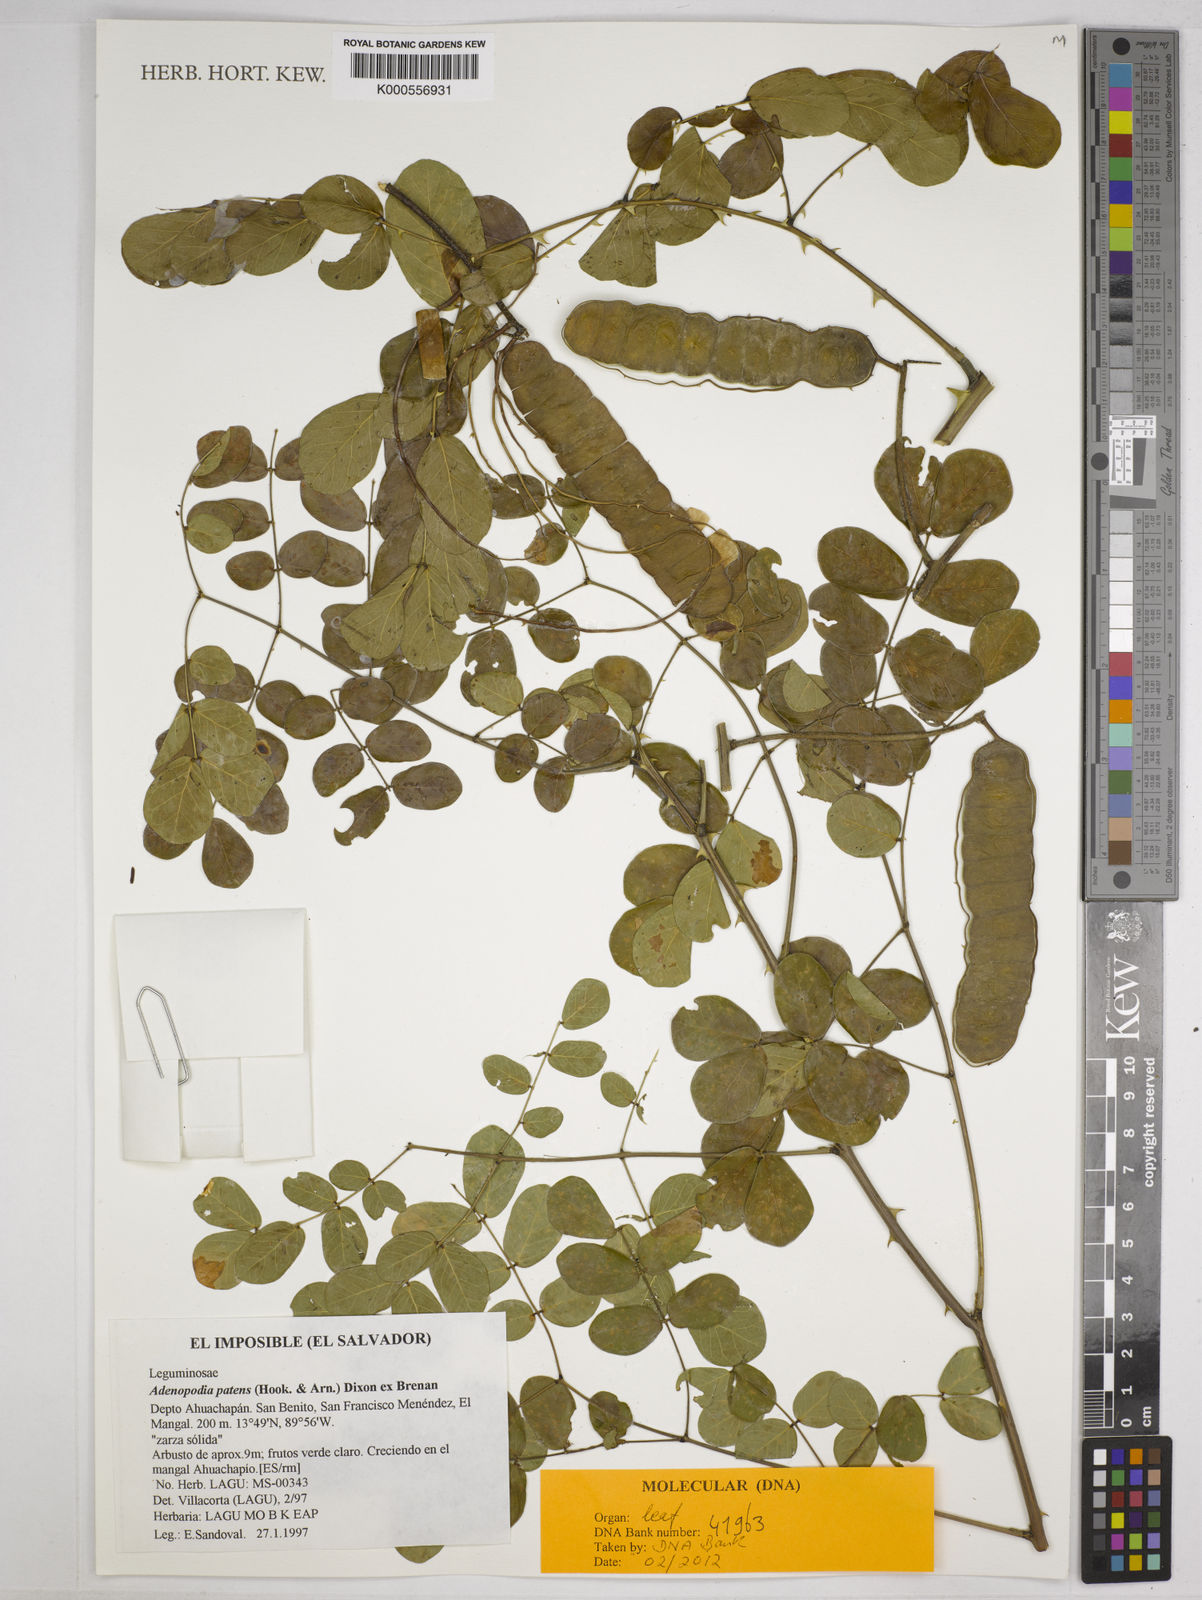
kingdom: Plantae
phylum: Tracheophyta
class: Magnoliopsida
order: Fabales
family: Fabaceae
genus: Adenopodia
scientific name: Adenopodia patens
